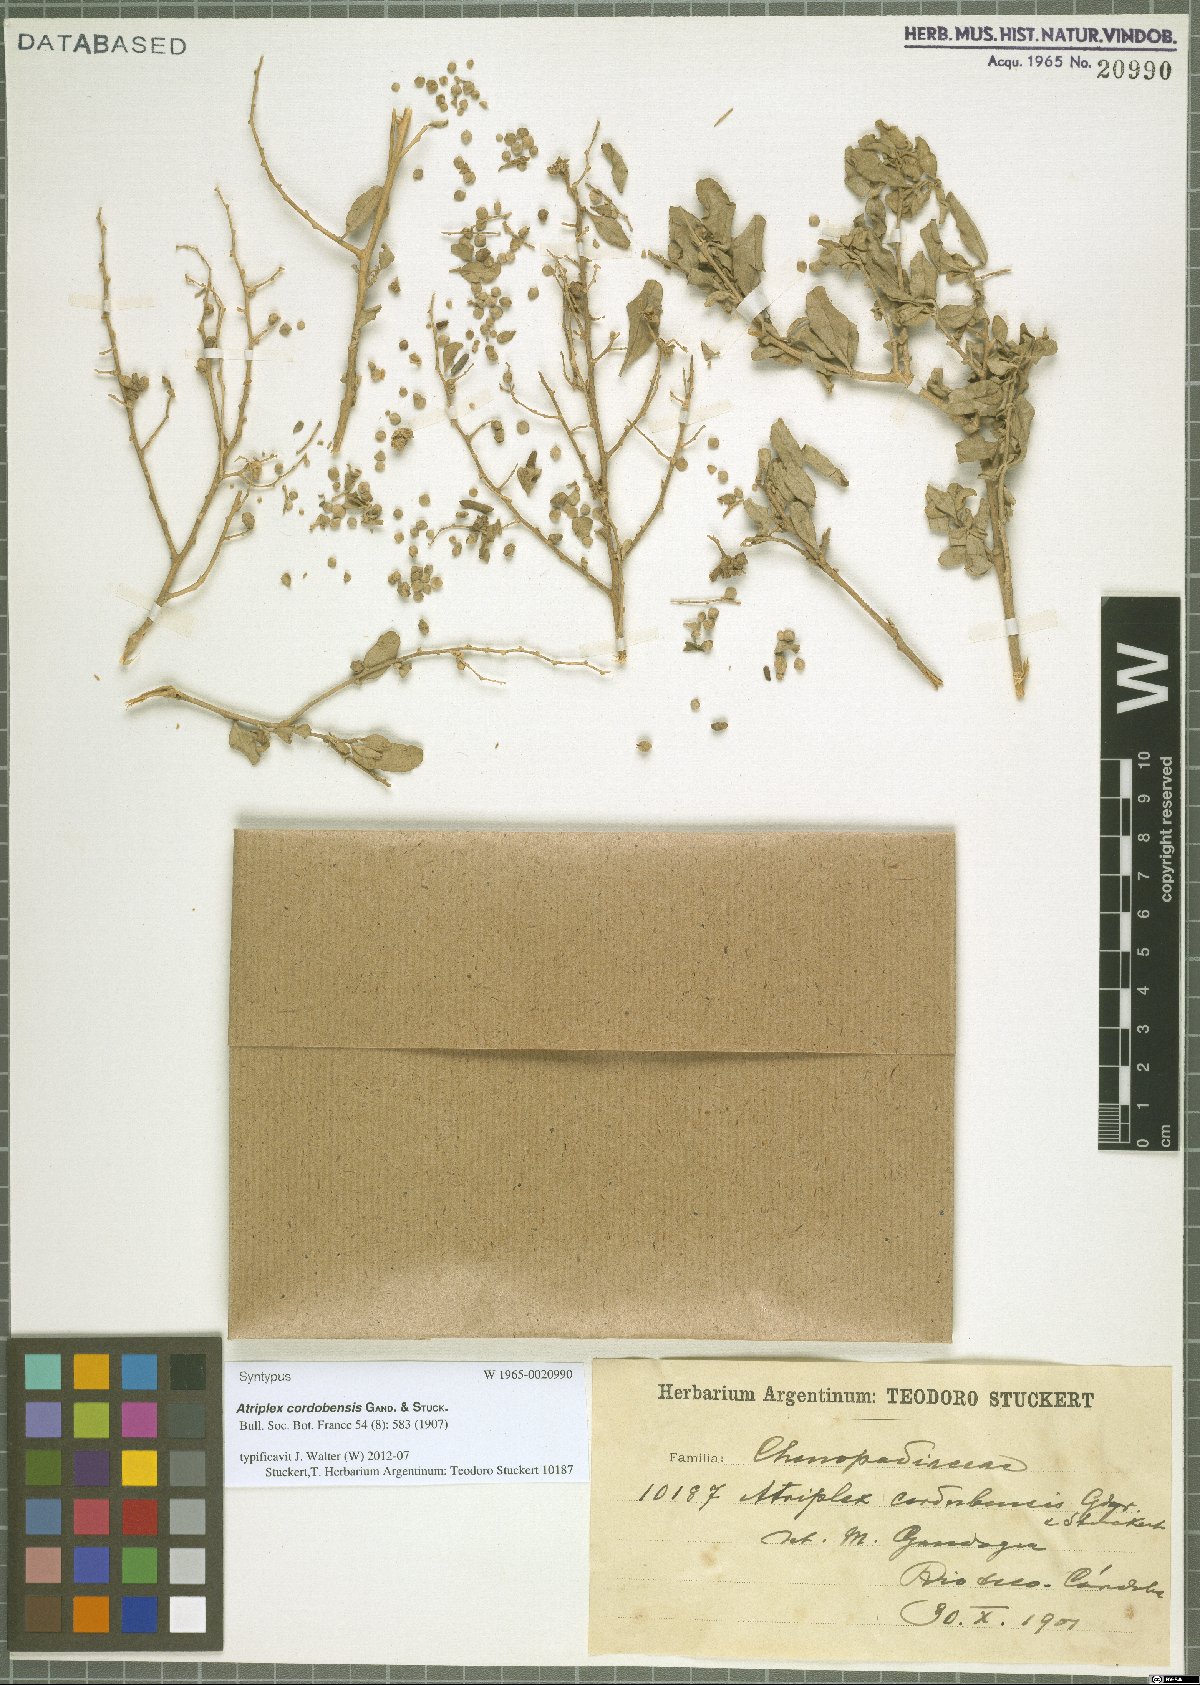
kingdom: Plantae
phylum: Tracheophyta
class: Magnoliopsida
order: Caryophyllales
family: Amaranthaceae
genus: Atriplex
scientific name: Atriplex cordobensis
